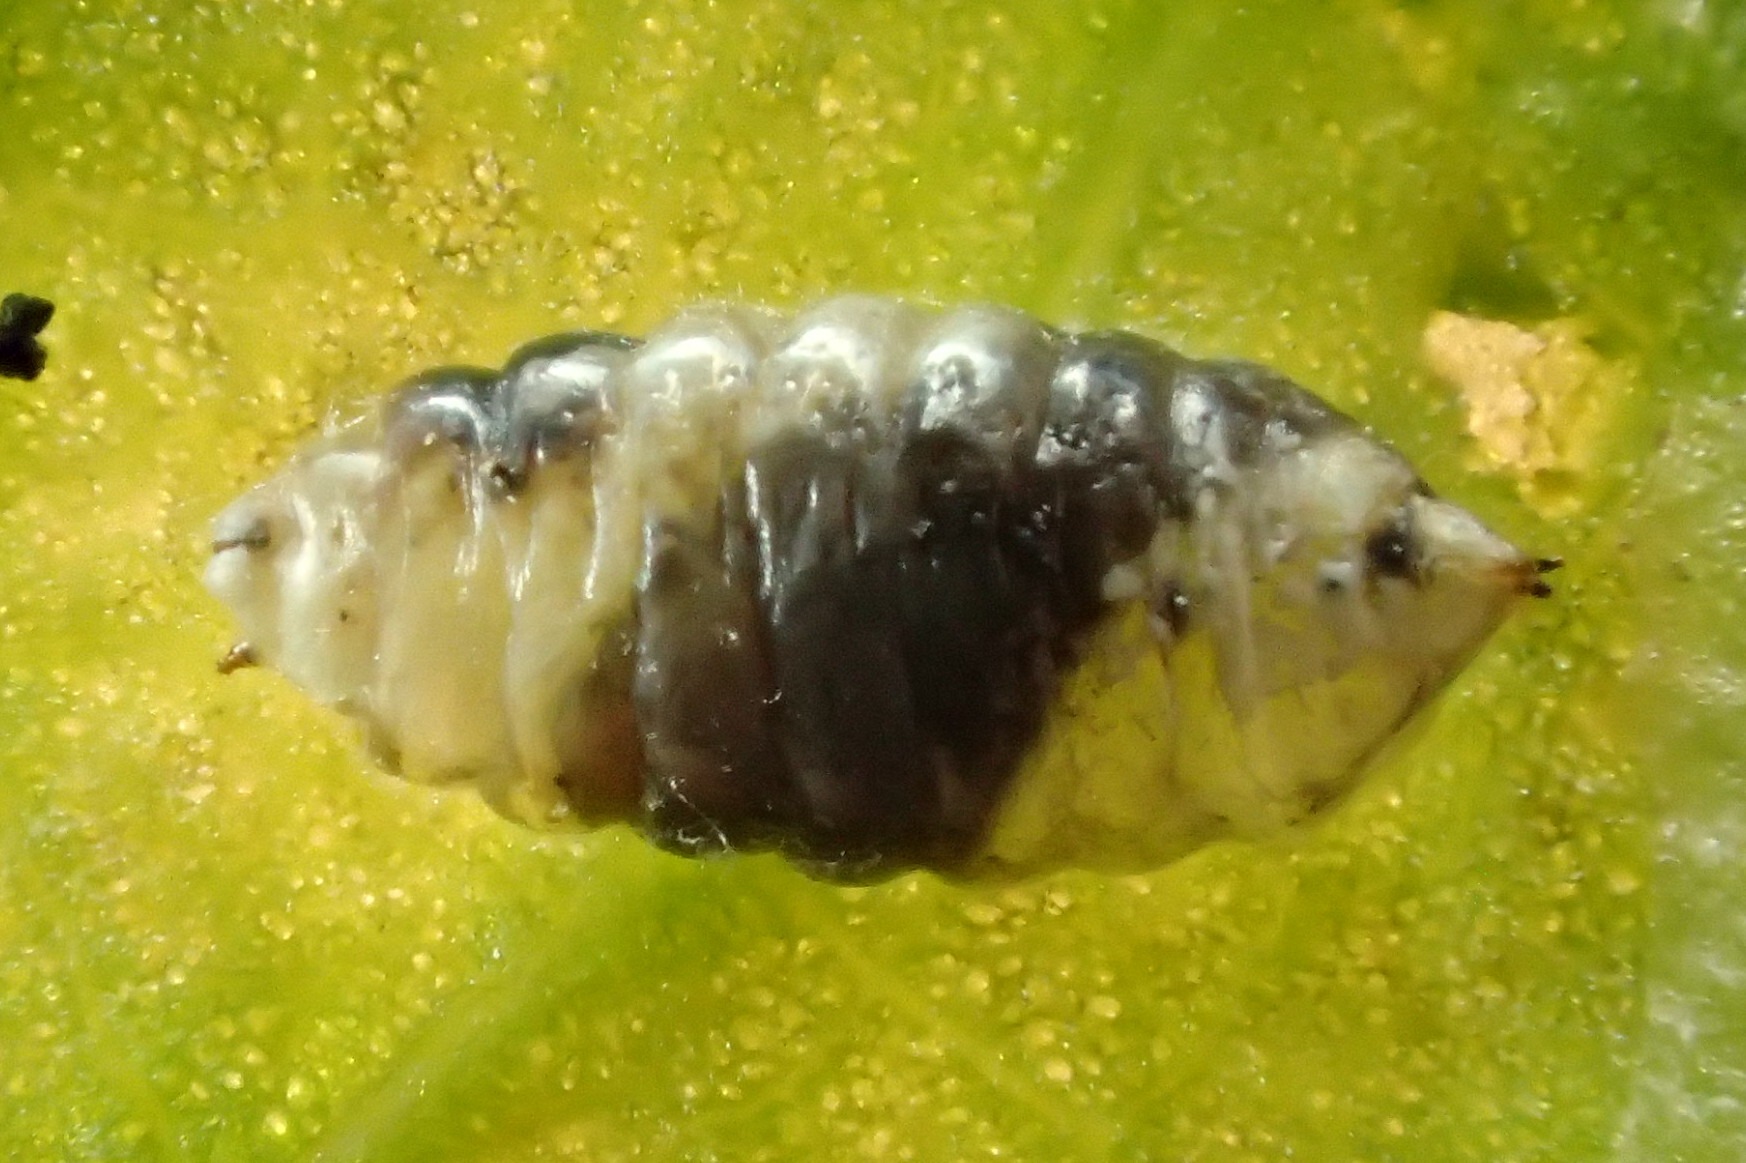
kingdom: Animalia
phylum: Arthropoda
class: Insecta
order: Diptera
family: Agromyzidae
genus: Phytomyza
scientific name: Phytomyza spinaciae
